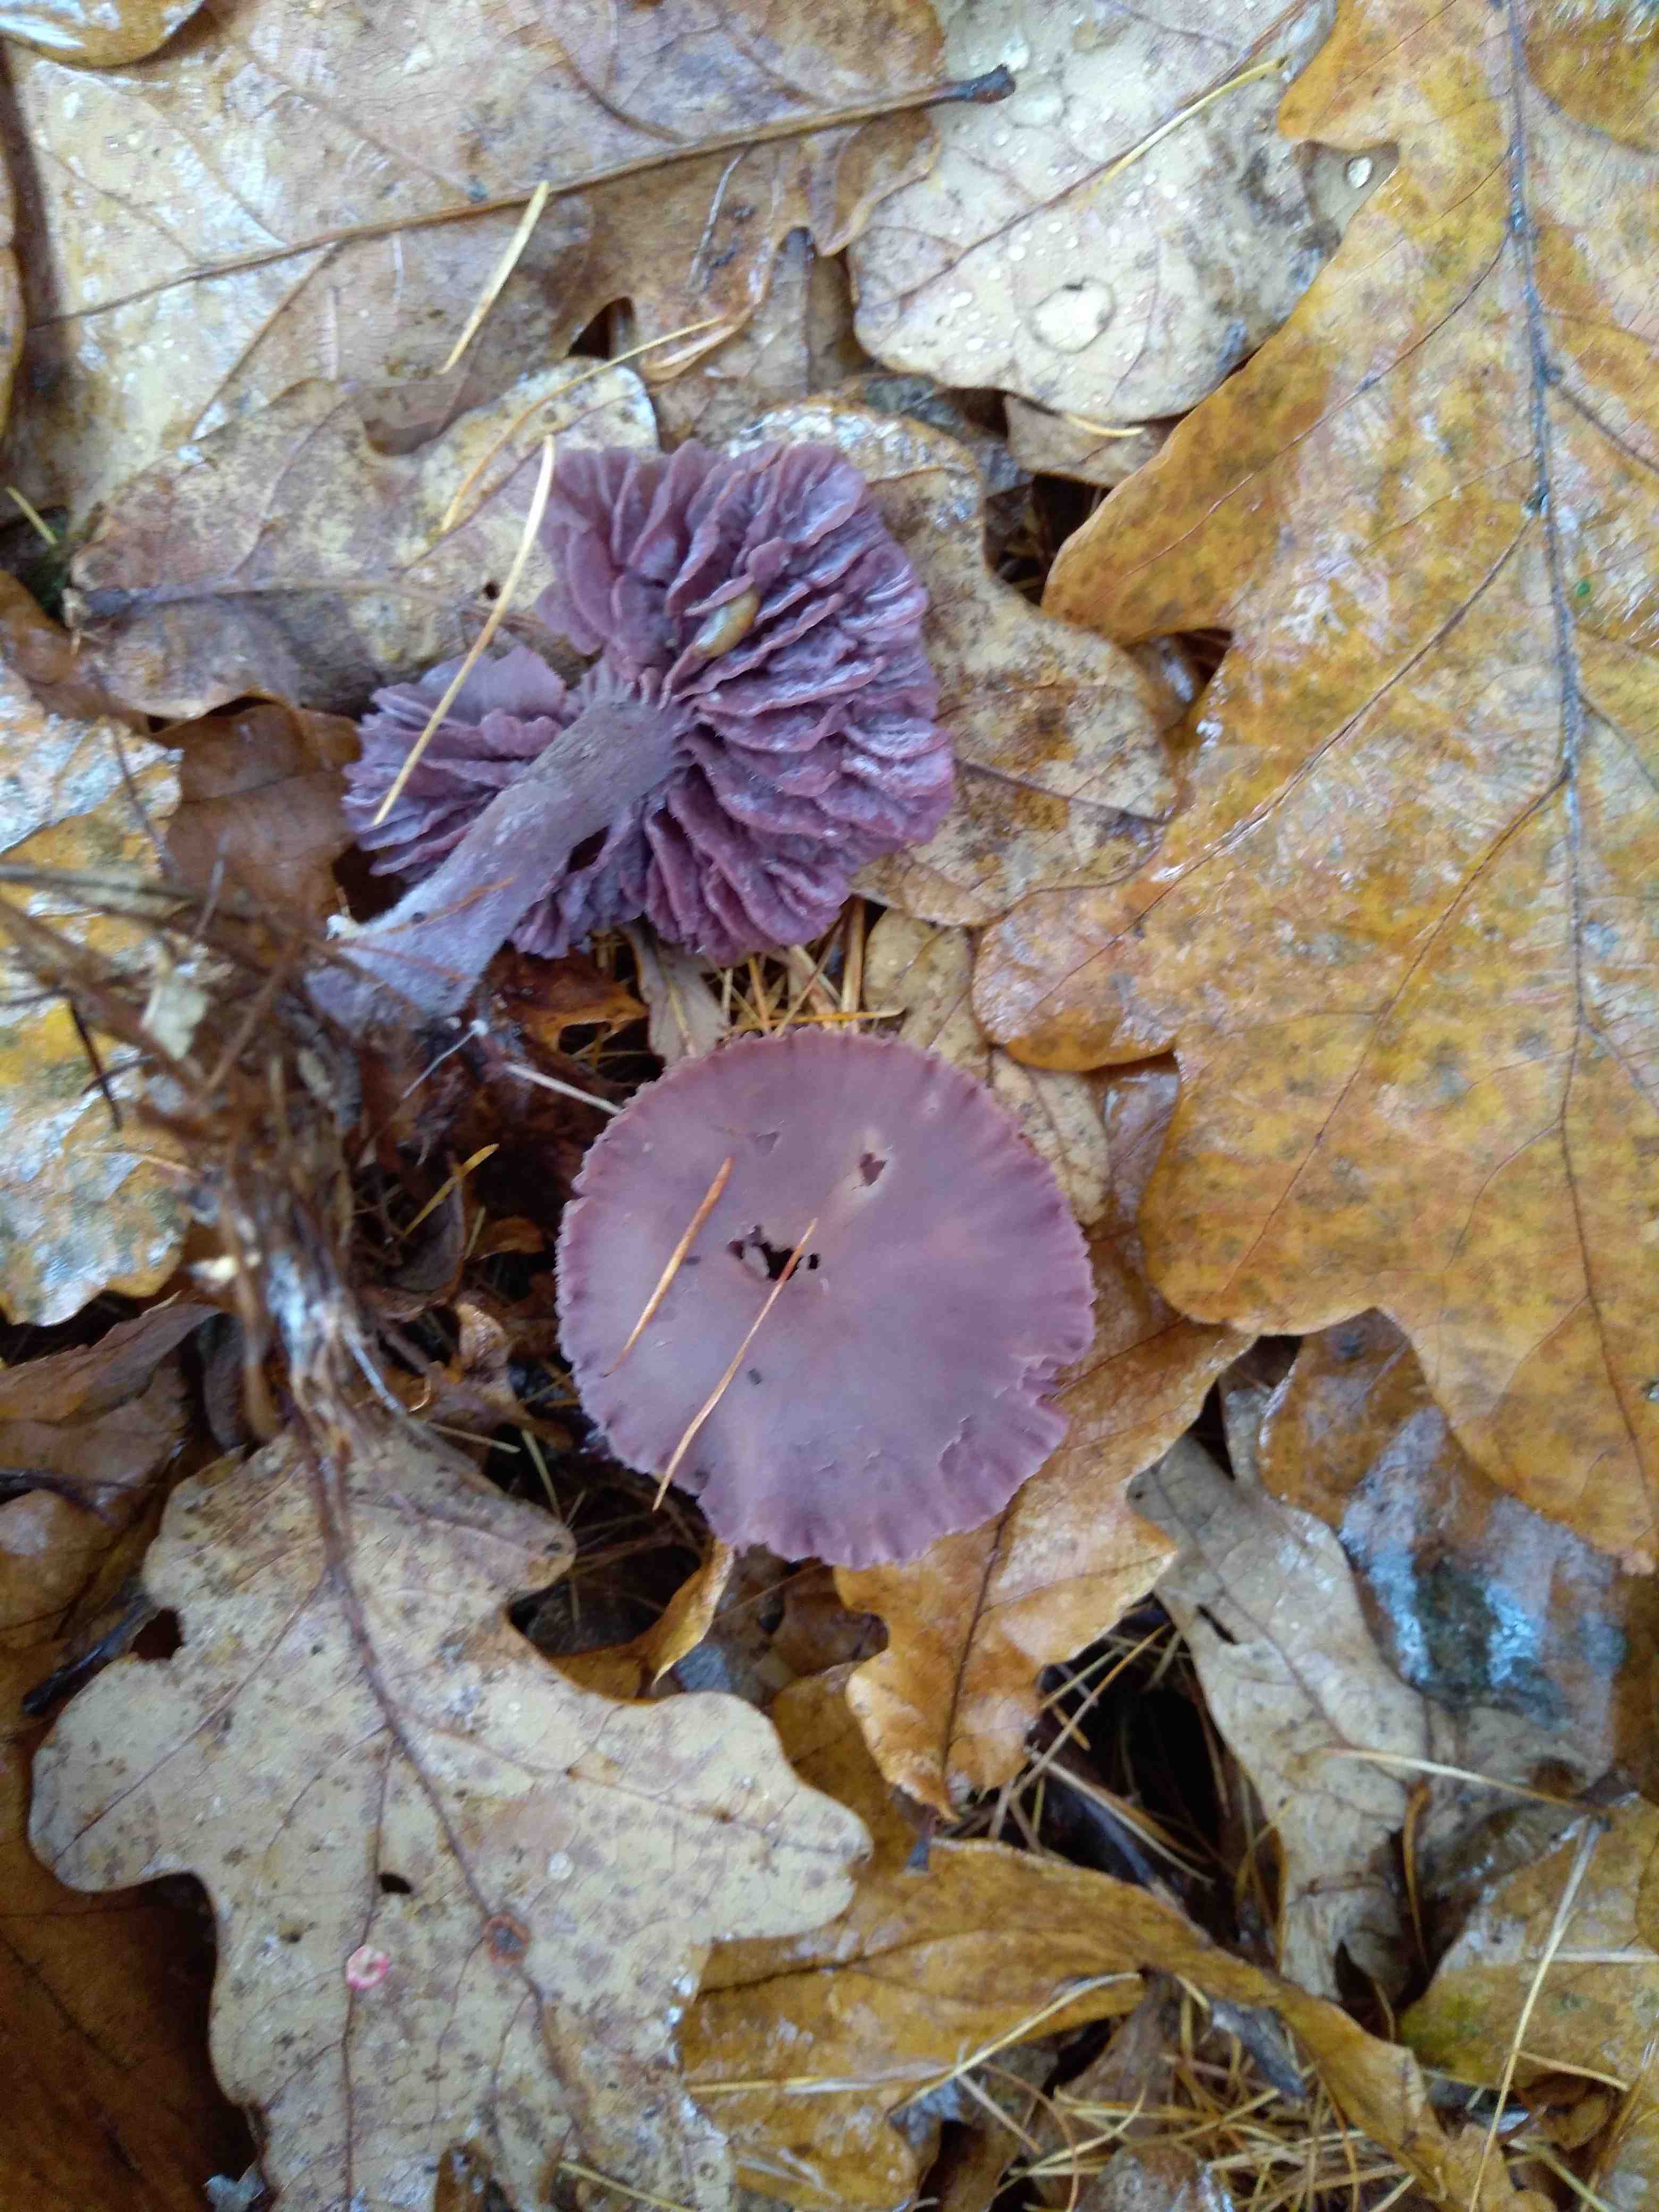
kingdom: Fungi
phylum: Basidiomycota
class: Agaricomycetes
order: Agaricales
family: Hydnangiaceae
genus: Laccaria
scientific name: Laccaria amethystina
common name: violet ametysthat
